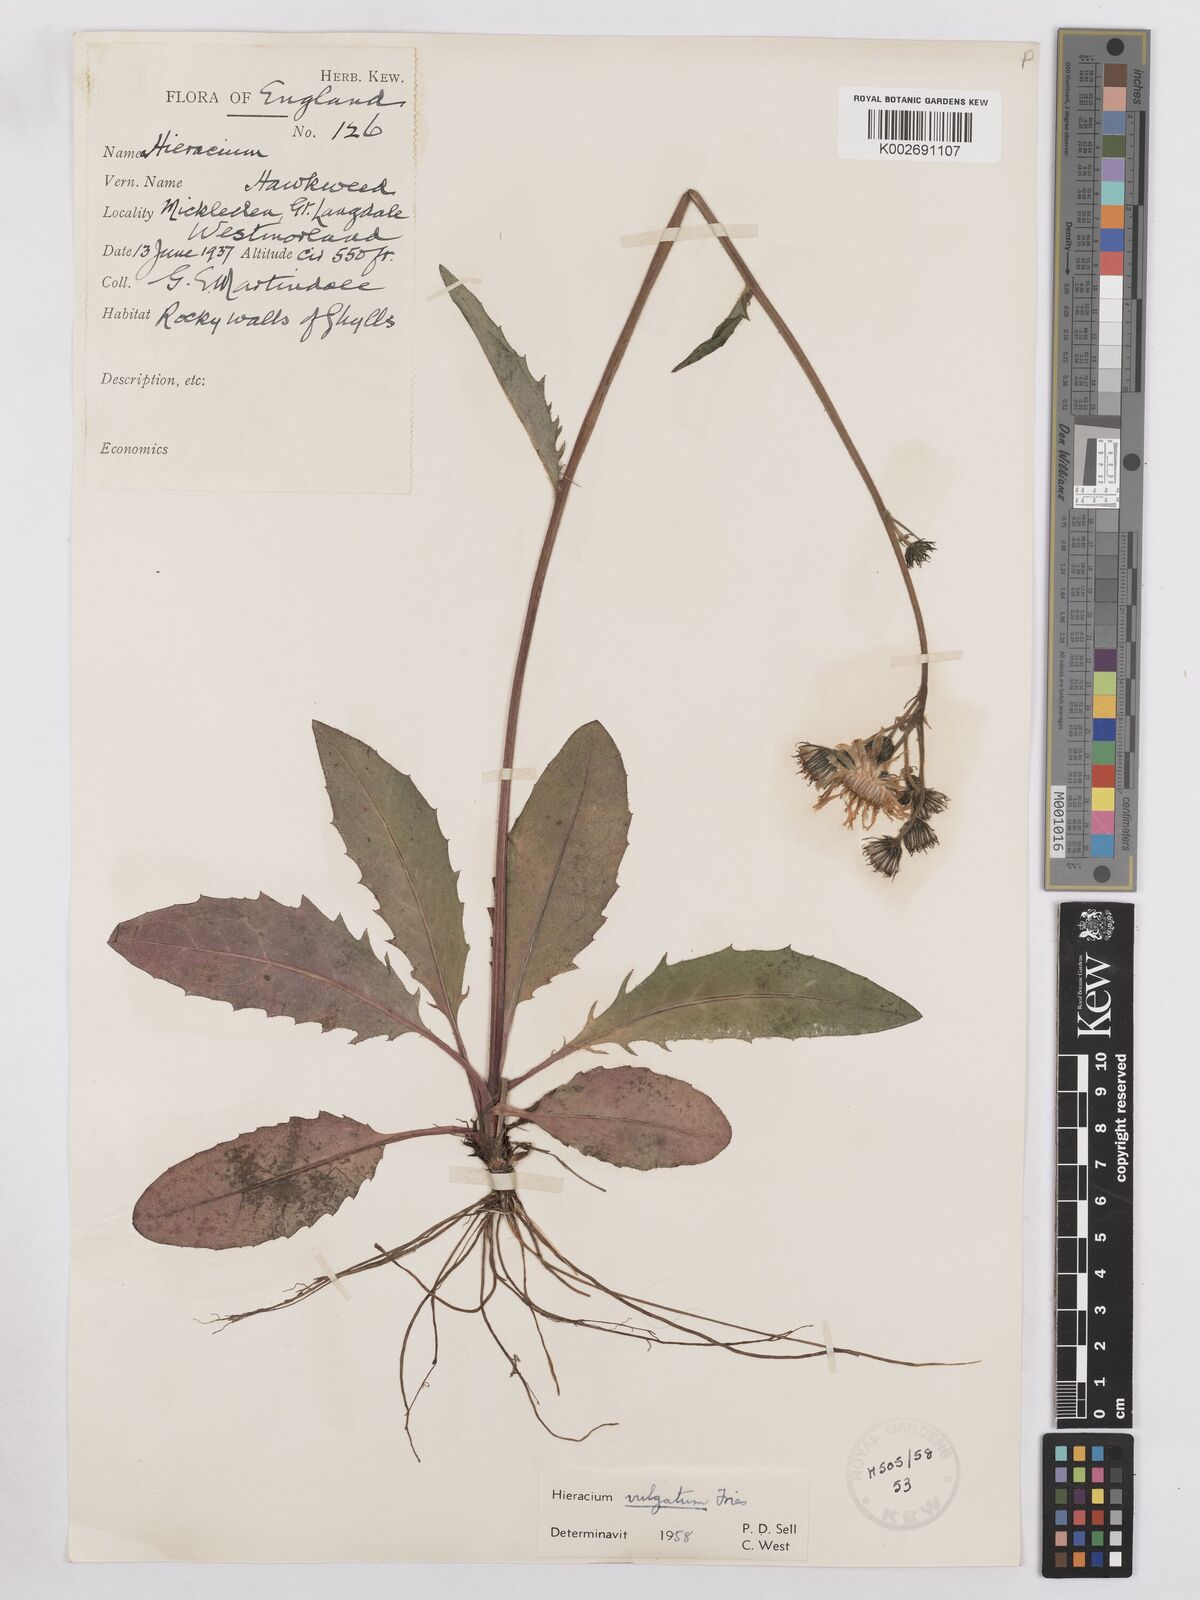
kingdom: Plantae
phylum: Tracheophyta
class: Magnoliopsida
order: Asterales
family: Asteraceae
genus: Hieracium
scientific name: Hieracium lachenalii
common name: Common hawkweed
